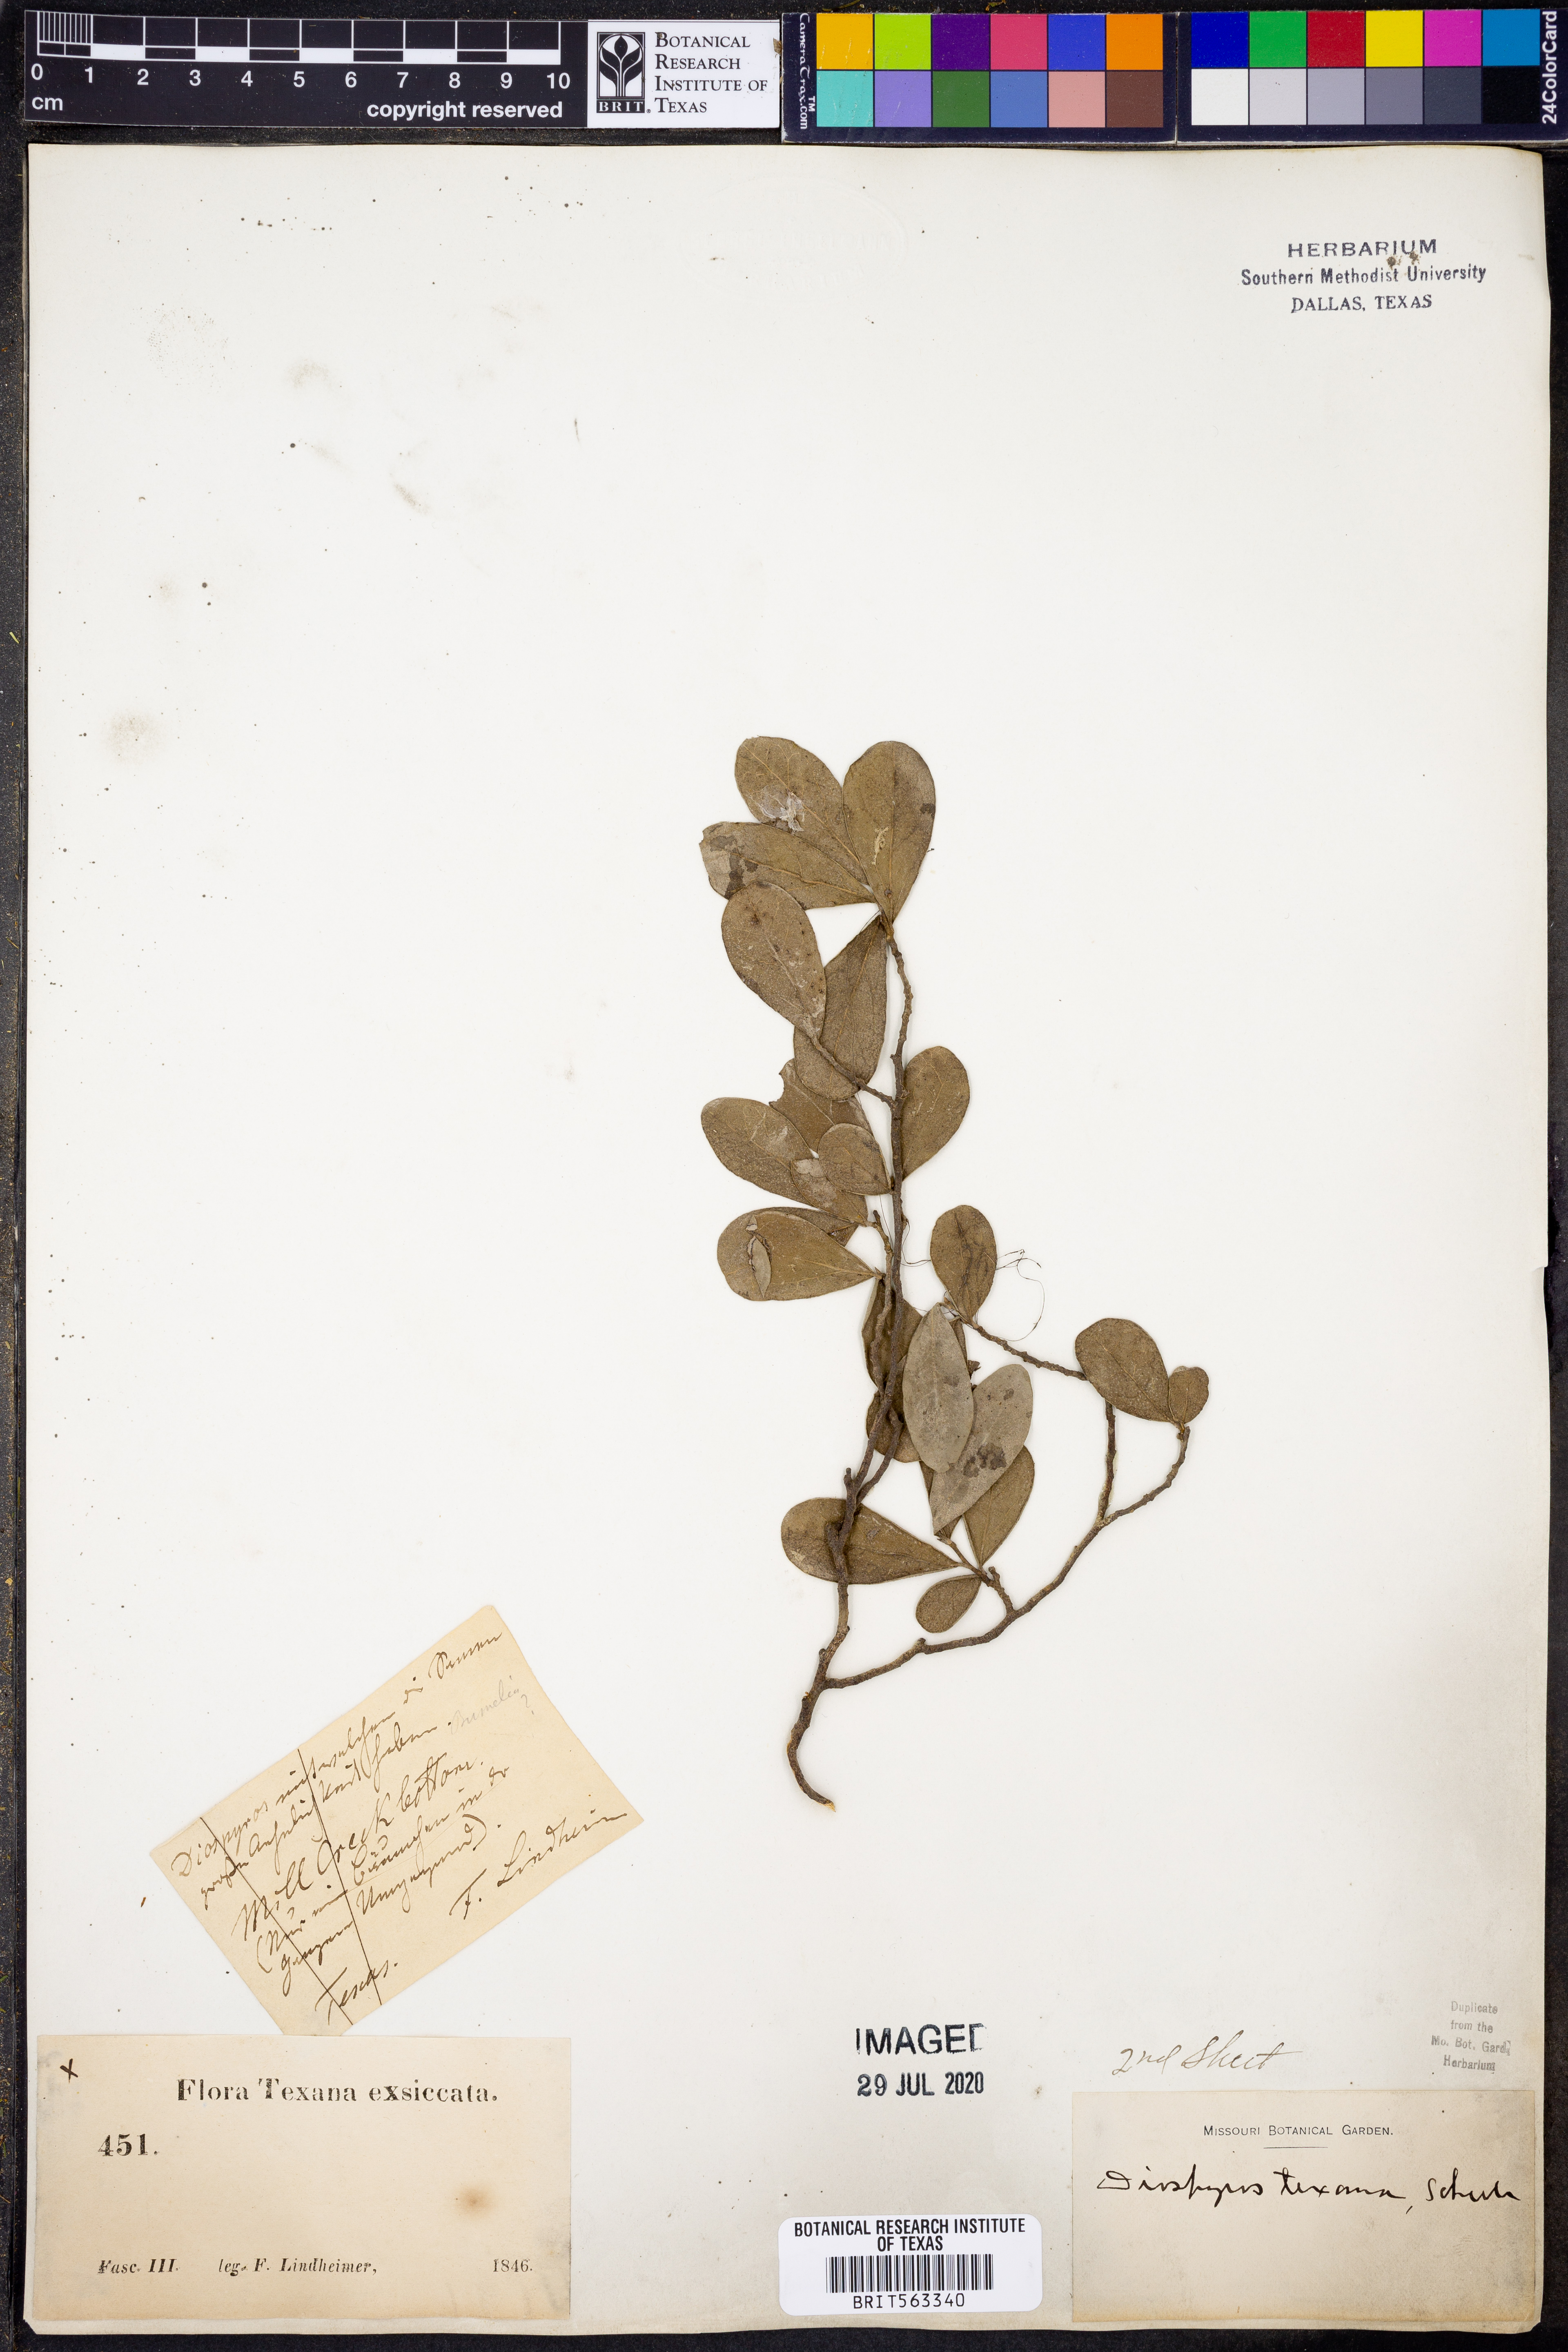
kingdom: Plantae
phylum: Tracheophyta
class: Magnoliopsida
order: Ericales
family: Ebenaceae
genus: Diospyros
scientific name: Diospyros texana
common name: Texas persimmon
